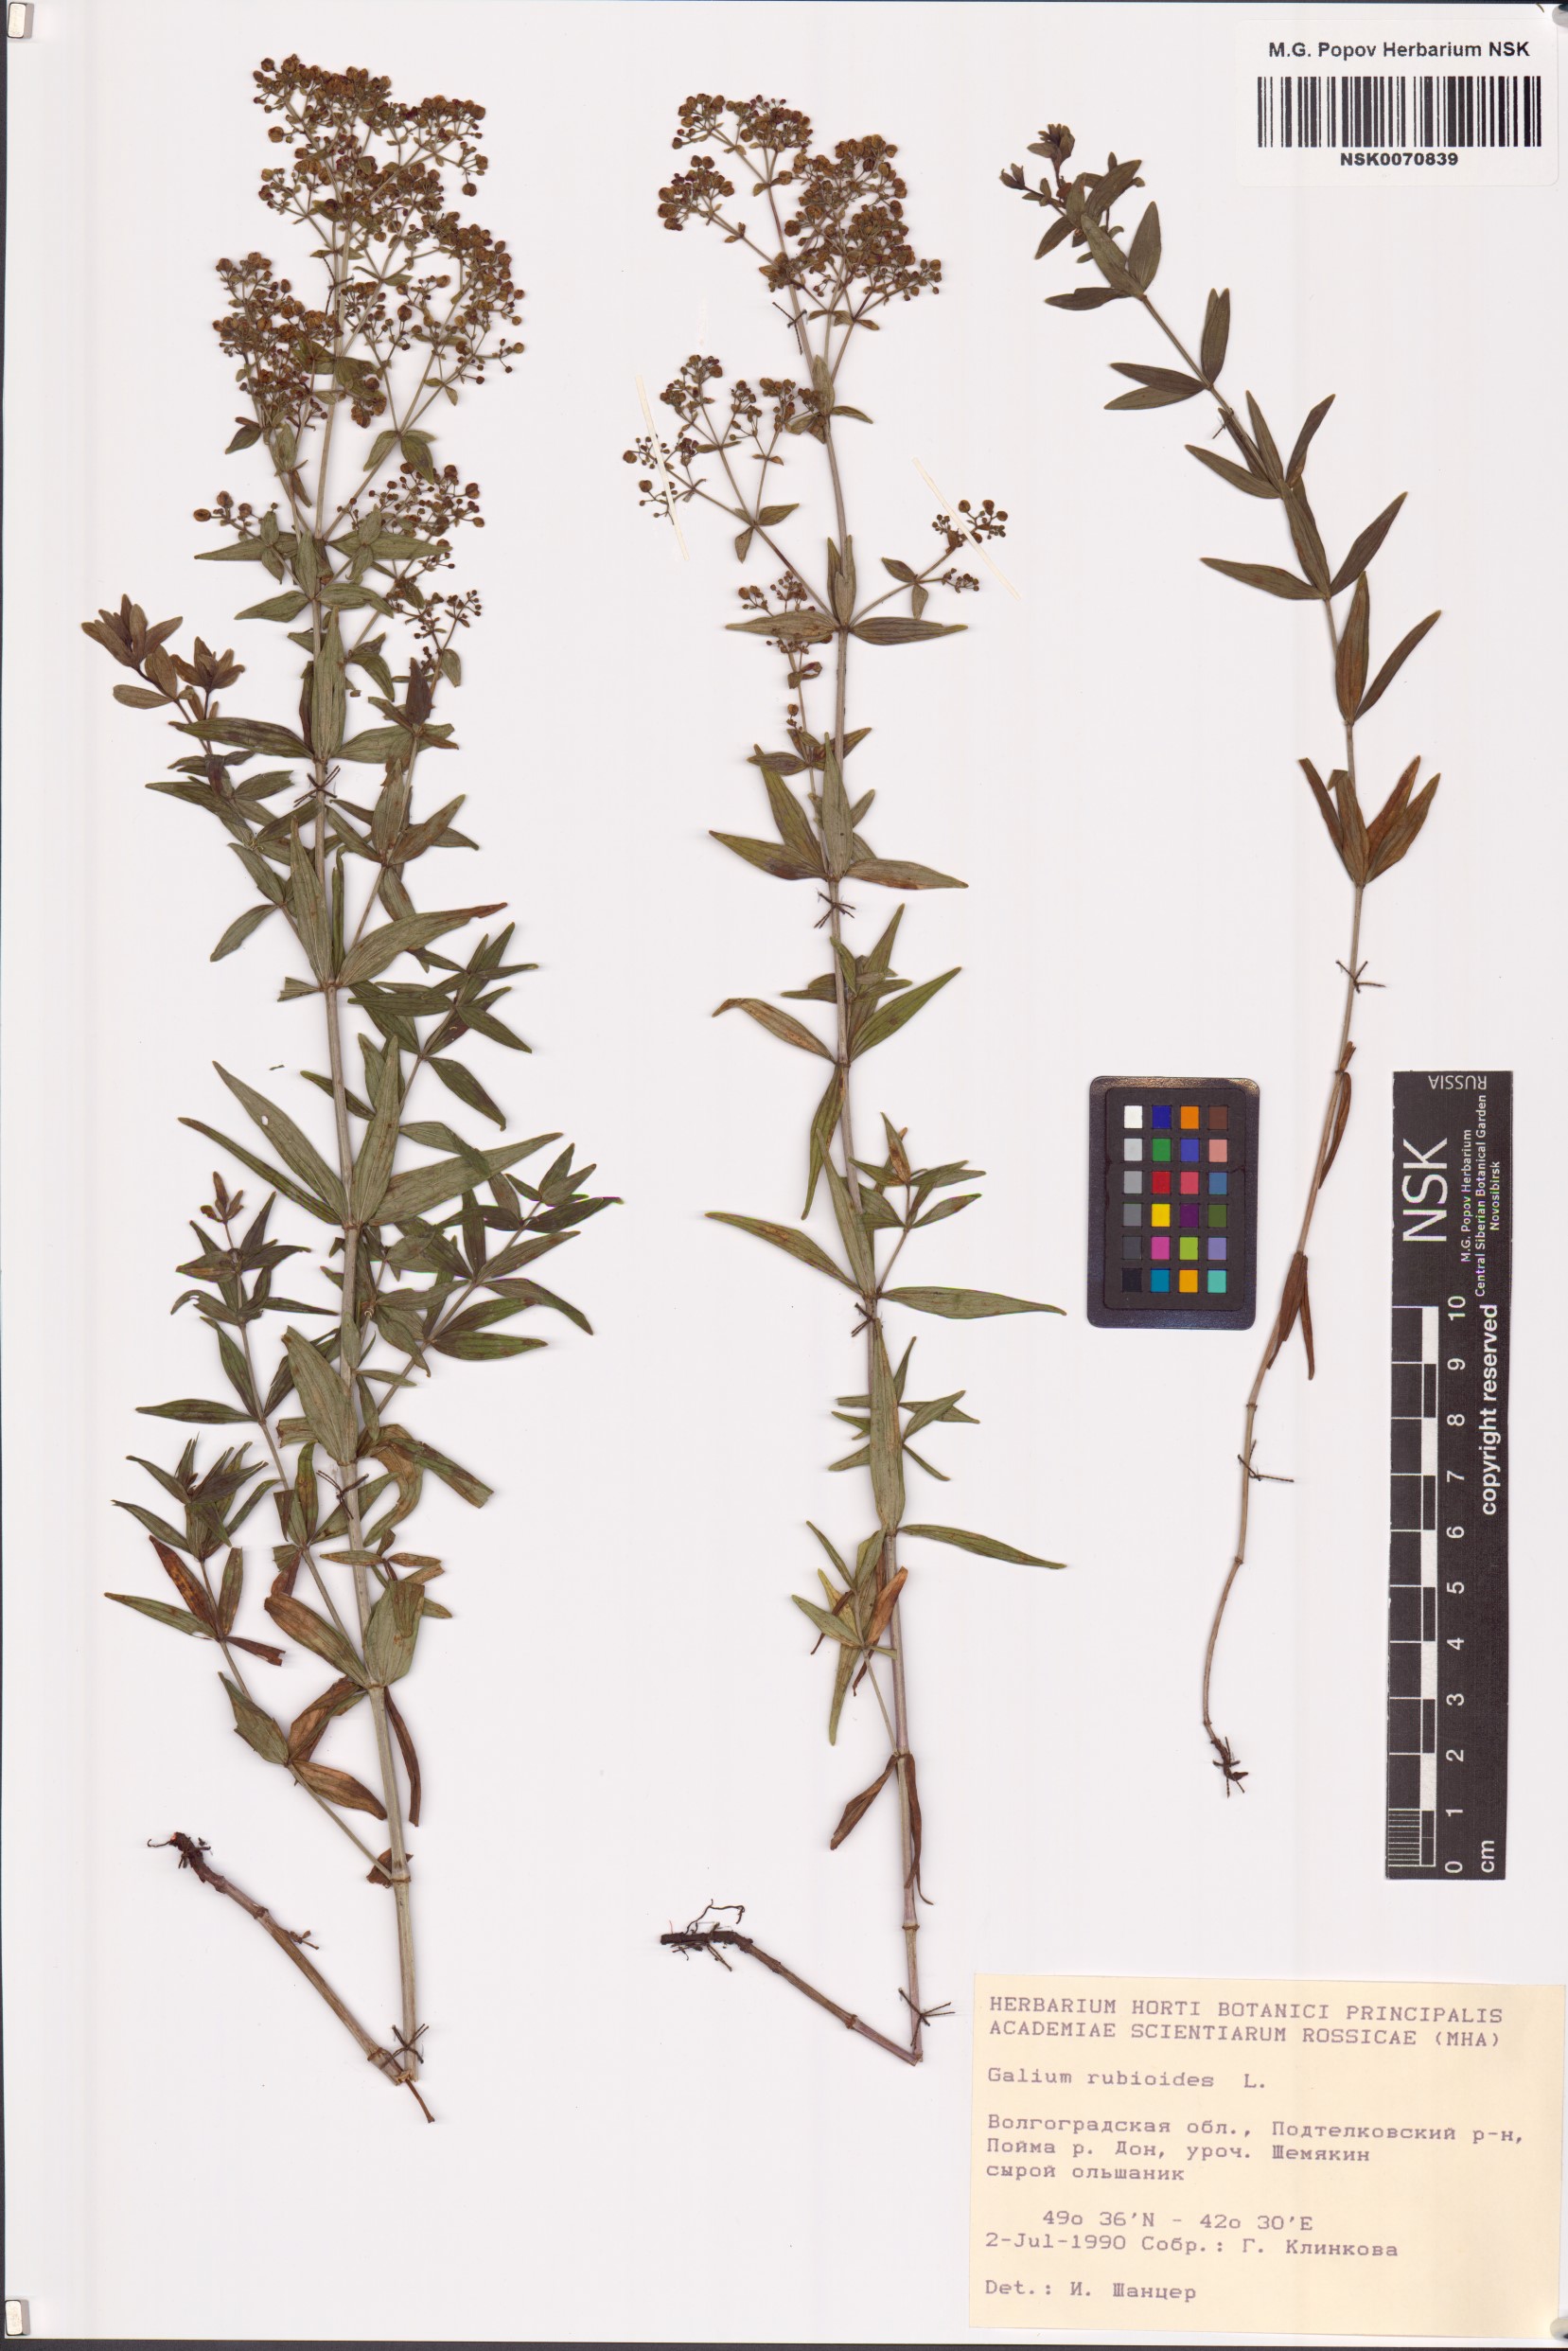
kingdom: Plantae
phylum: Tracheophyta
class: Magnoliopsida
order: Gentianales
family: Rubiaceae
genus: Galium
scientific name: Galium rubioides
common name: European bedstraw
